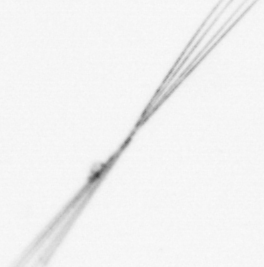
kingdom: Chromista
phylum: Ochrophyta
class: Bacillariophyceae
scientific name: Bacillariophyceae
